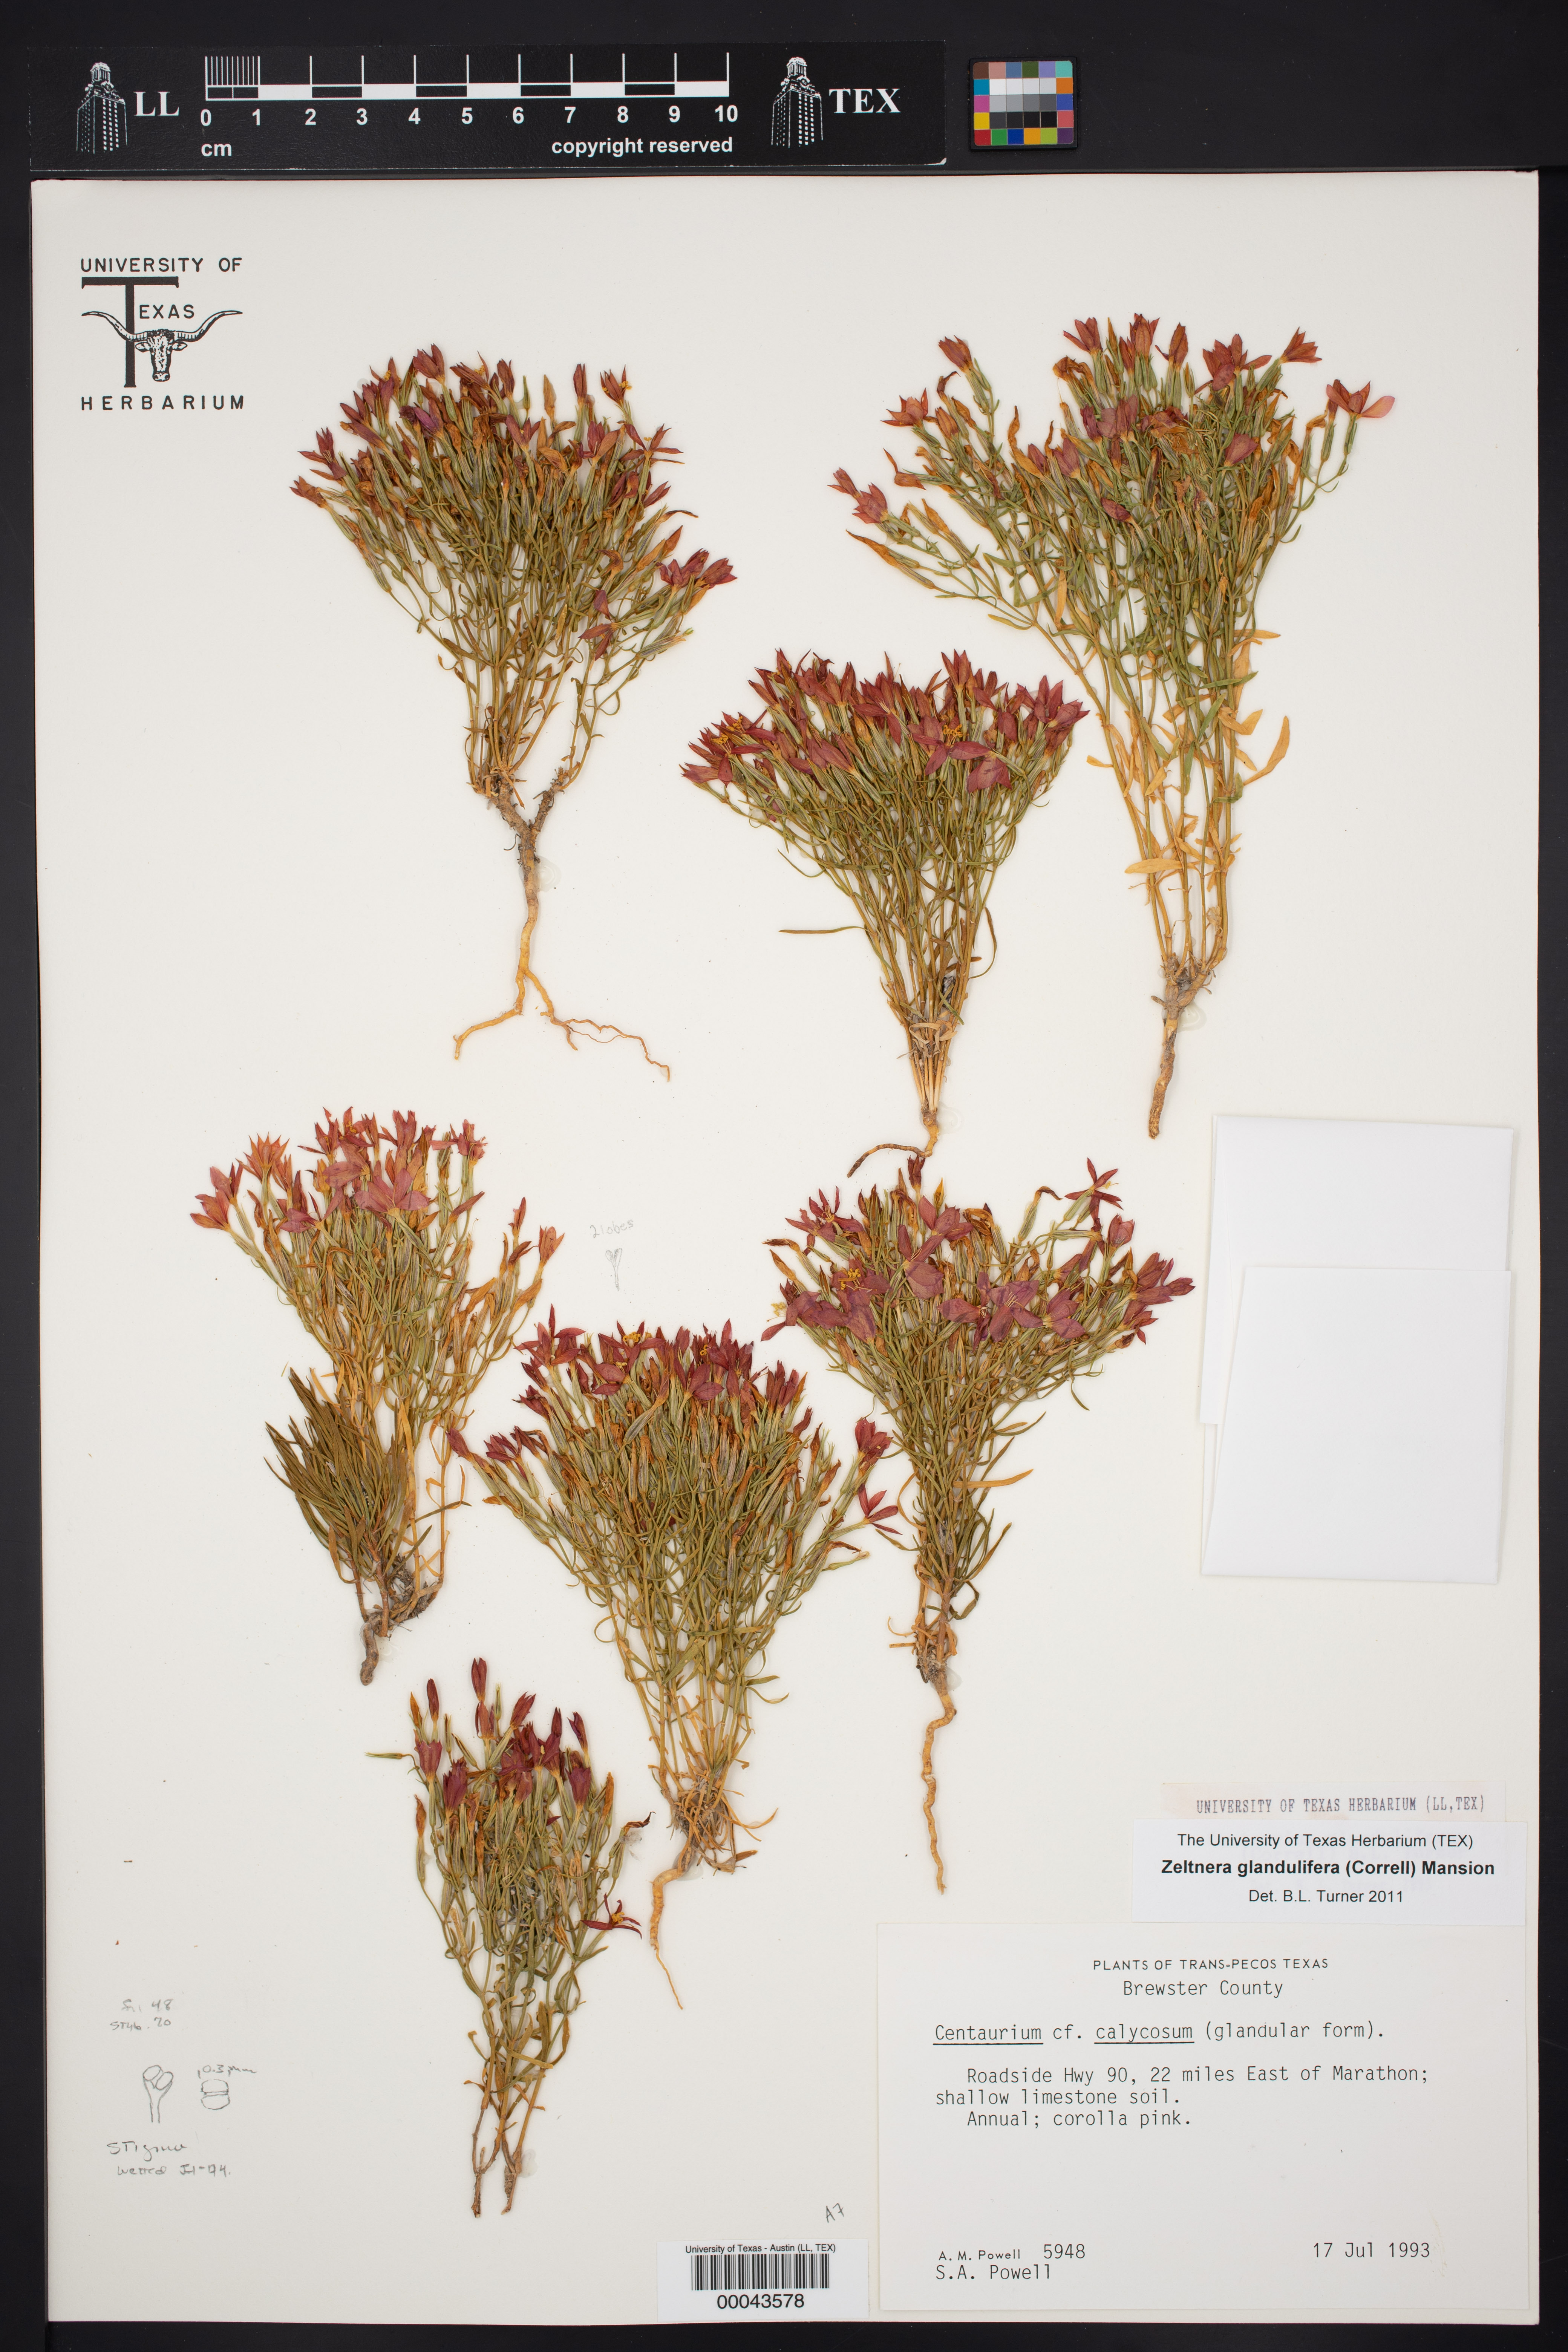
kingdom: Plantae
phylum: Tracheophyta
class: Magnoliopsida
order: Gentianales
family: Gentianaceae
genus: Zeltnera
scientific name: Zeltnera glandulifera
